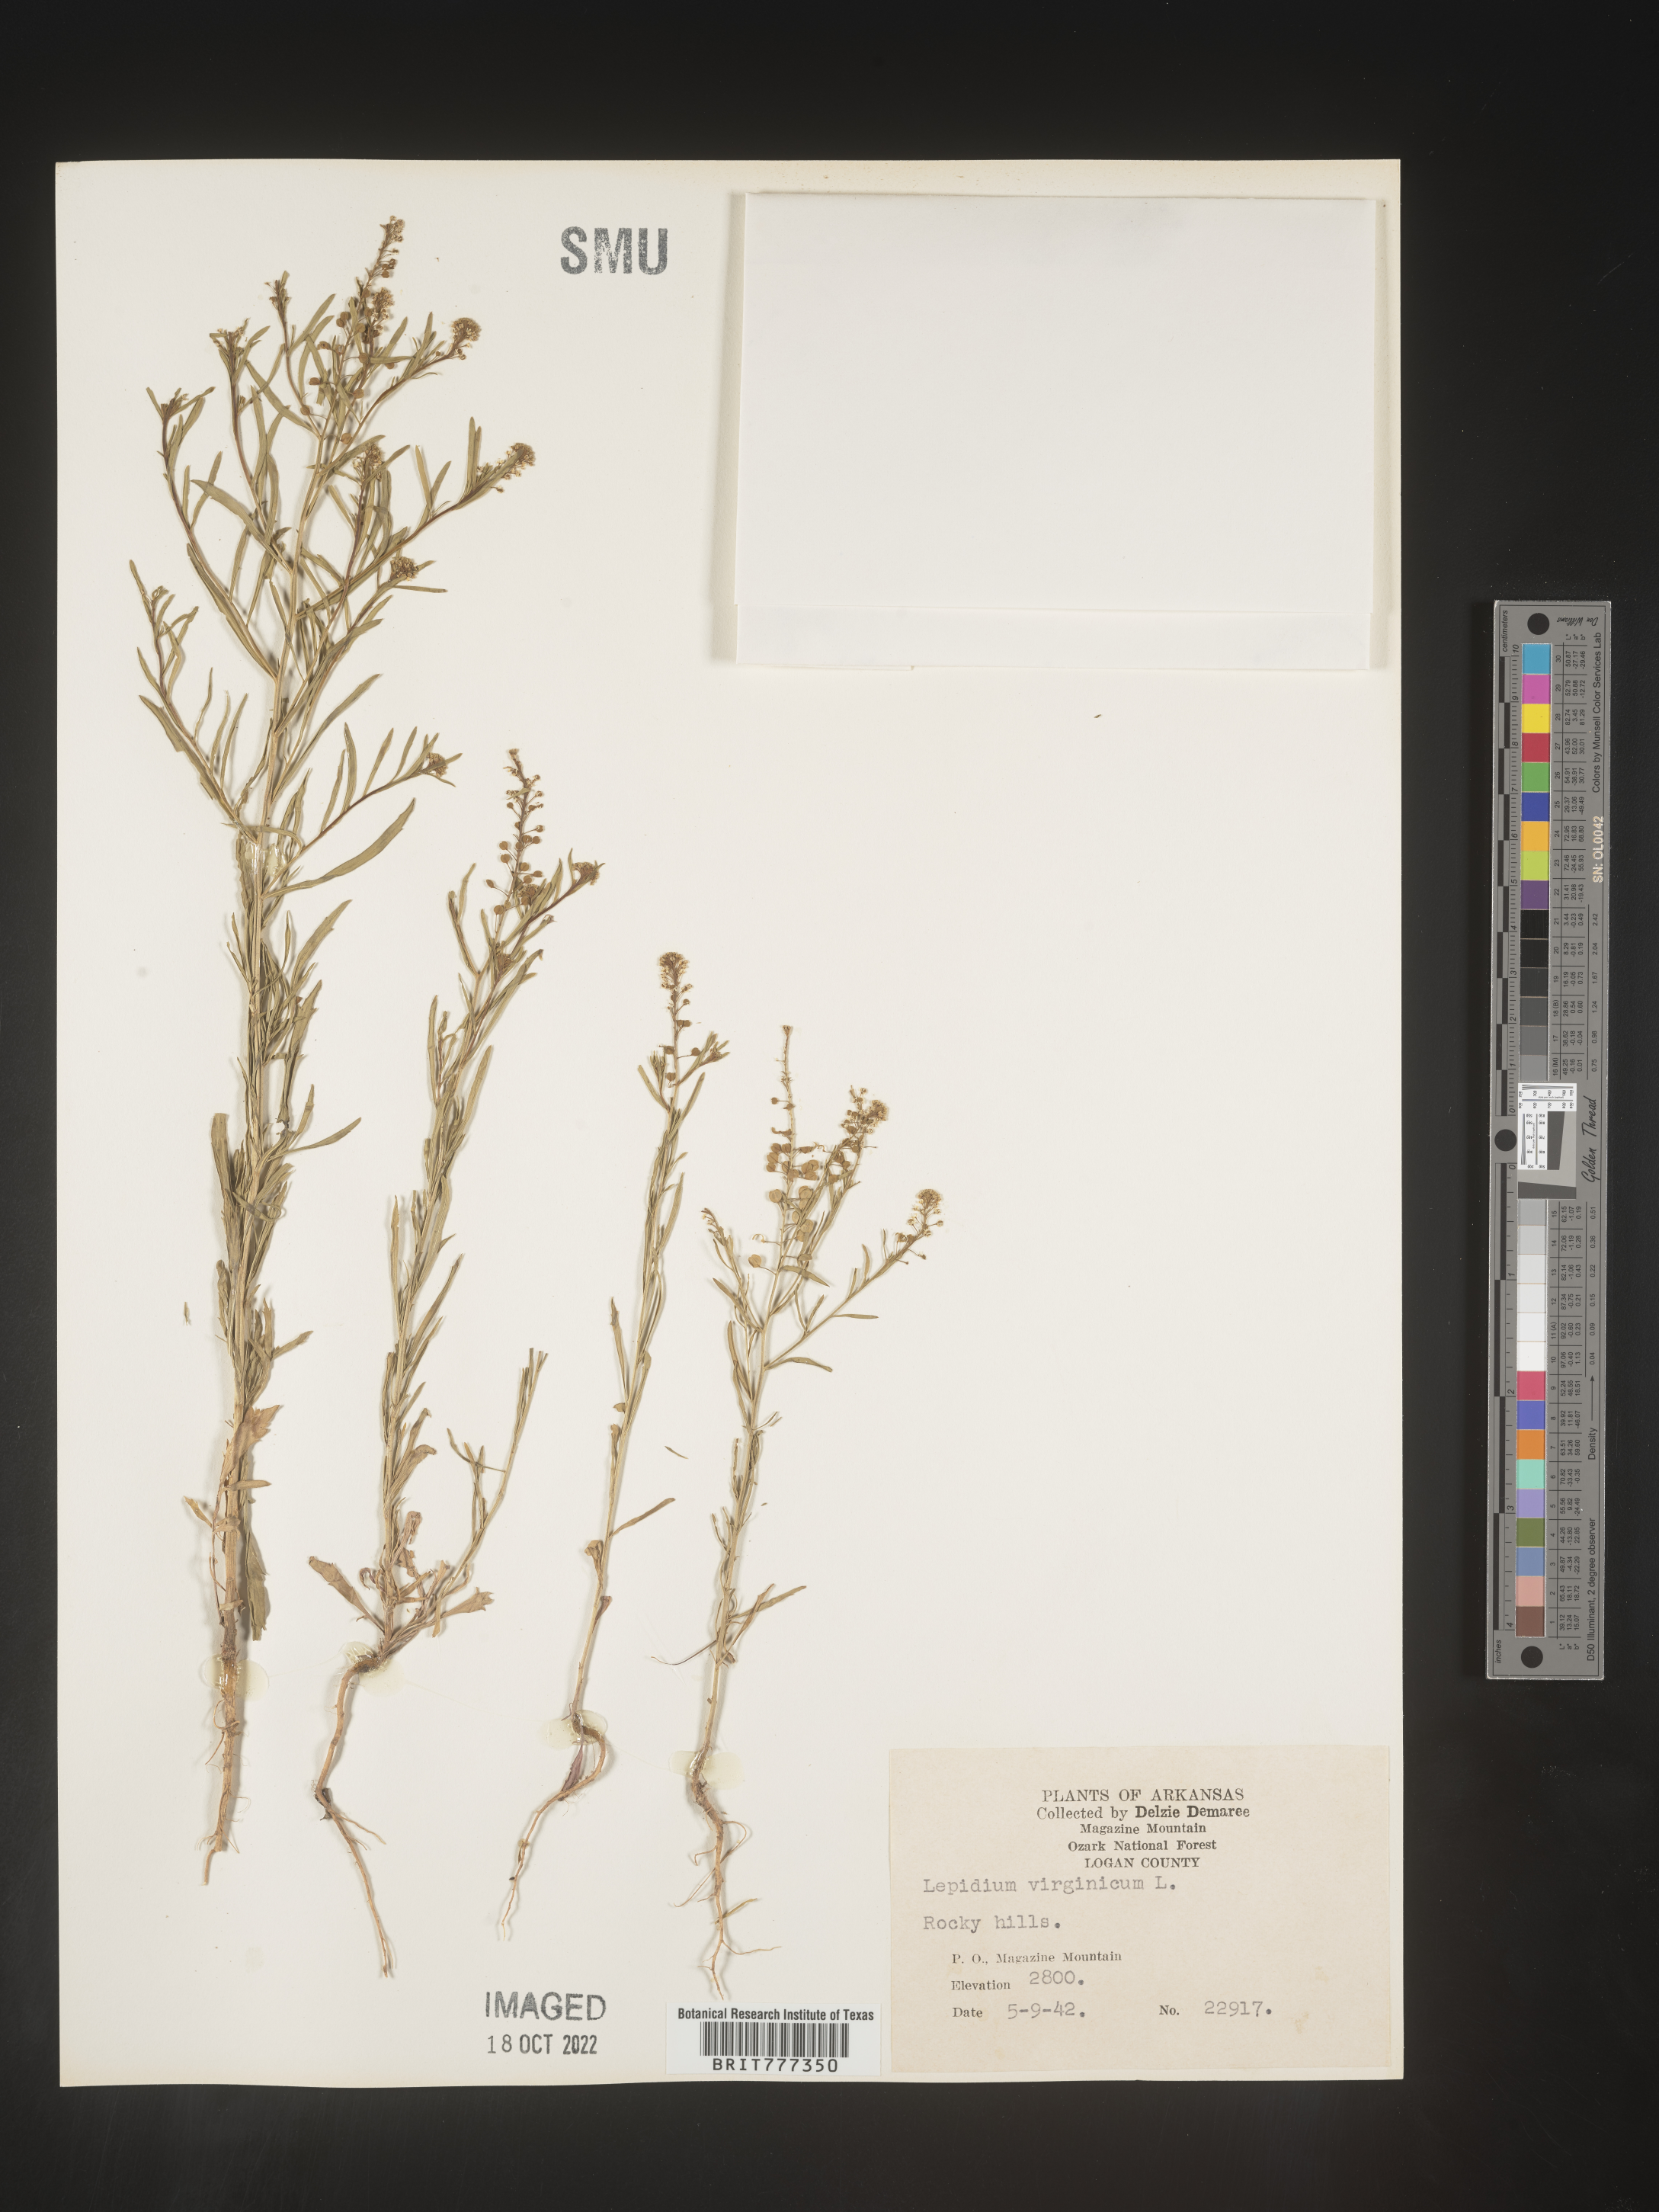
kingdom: Plantae
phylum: Tracheophyta
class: Magnoliopsida
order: Brassicales
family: Brassicaceae
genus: Lepidium
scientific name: Lepidium virginicum
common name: Least pepperwort
